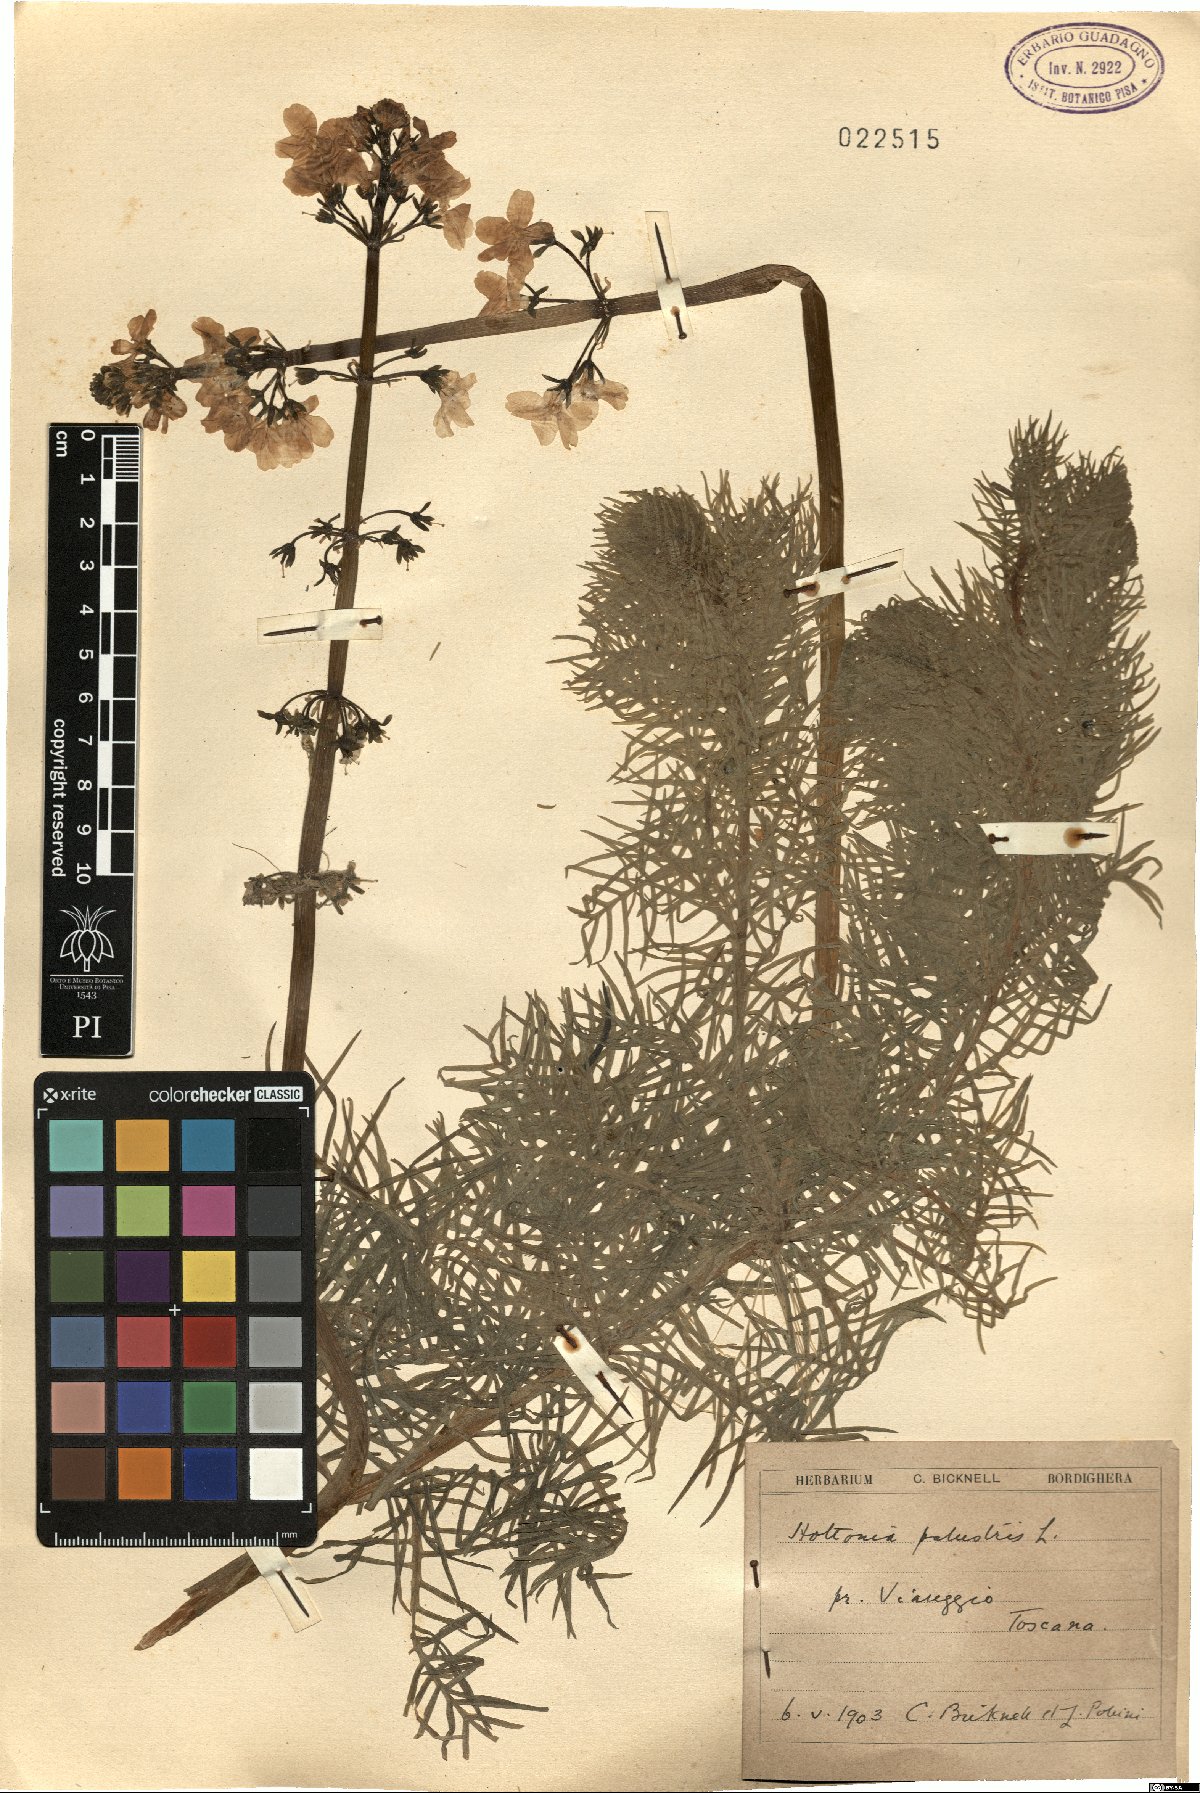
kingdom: Plantae
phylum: Tracheophyta
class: Magnoliopsida
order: Ericales
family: Primulaceae
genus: Hottonia
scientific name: Hottonia palustris
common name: Water-violet
